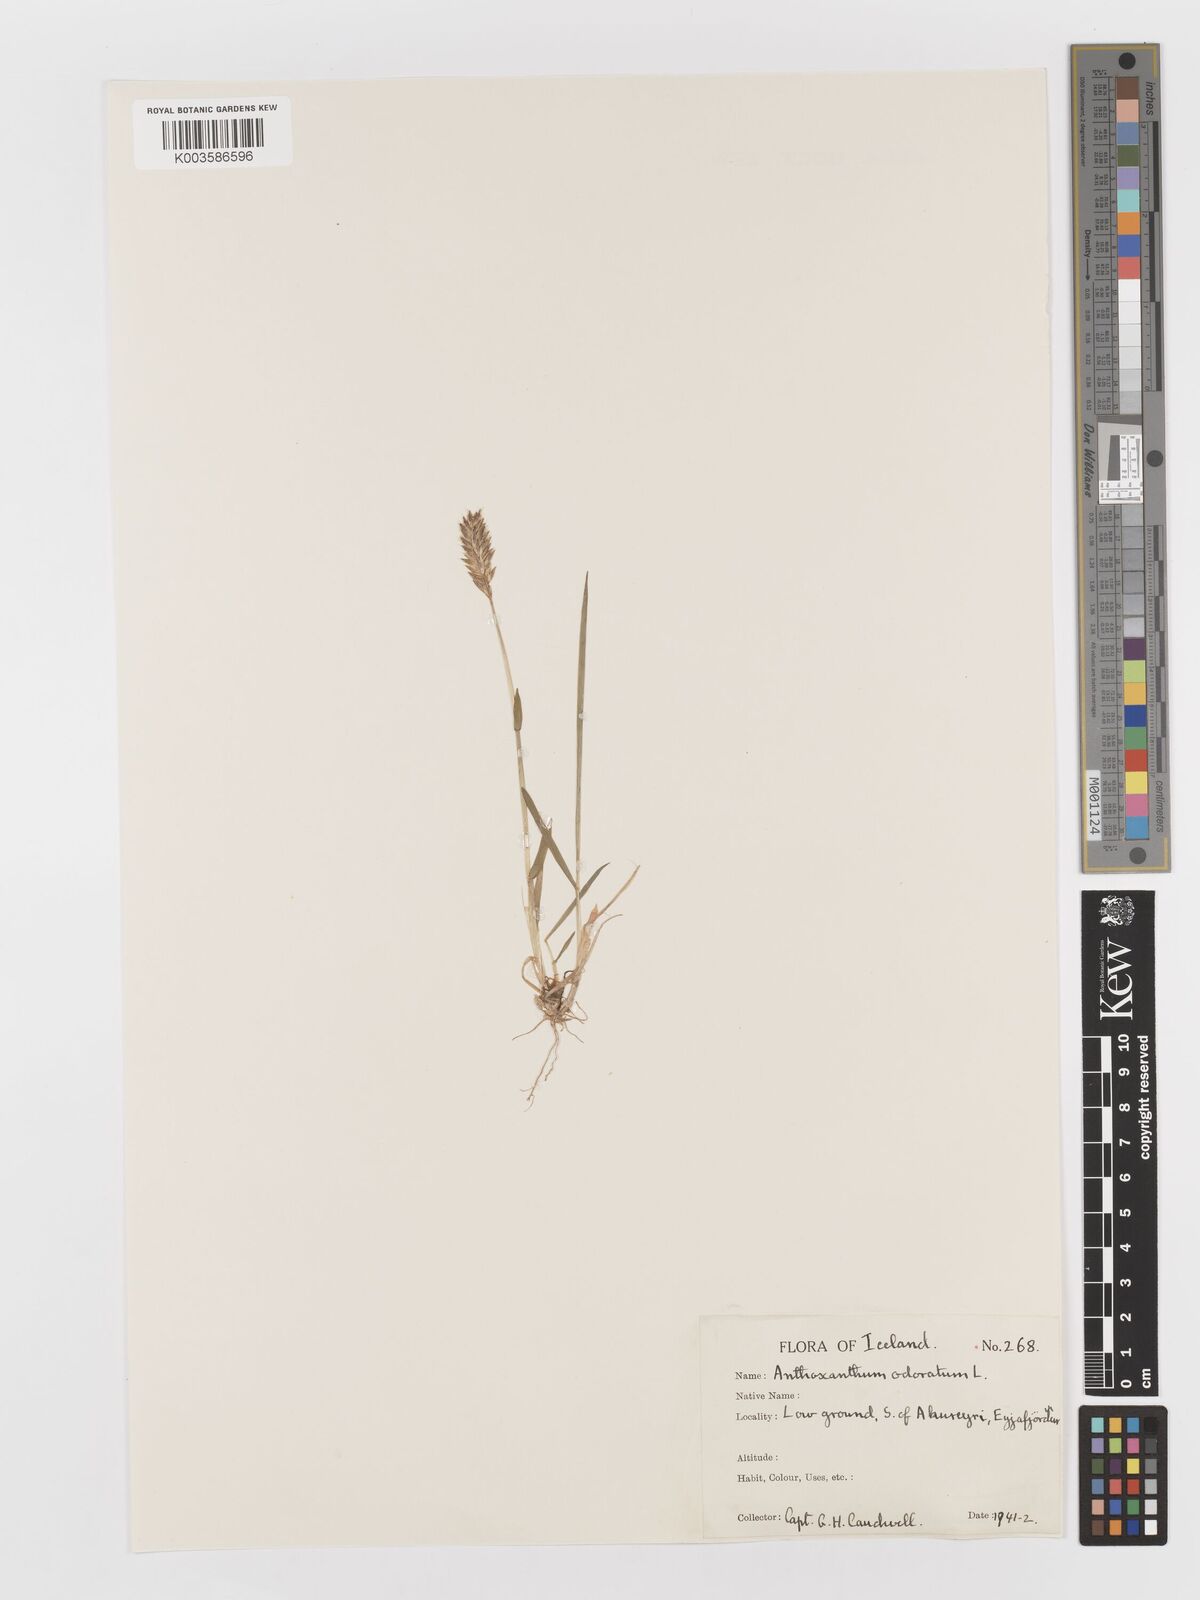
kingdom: Plantae
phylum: Tracheophyta
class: Liliopsida
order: Poales
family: Poaceae
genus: Anthoxanthum
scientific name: Anthoxanthum odoratum
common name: Sweet vernalgrass
